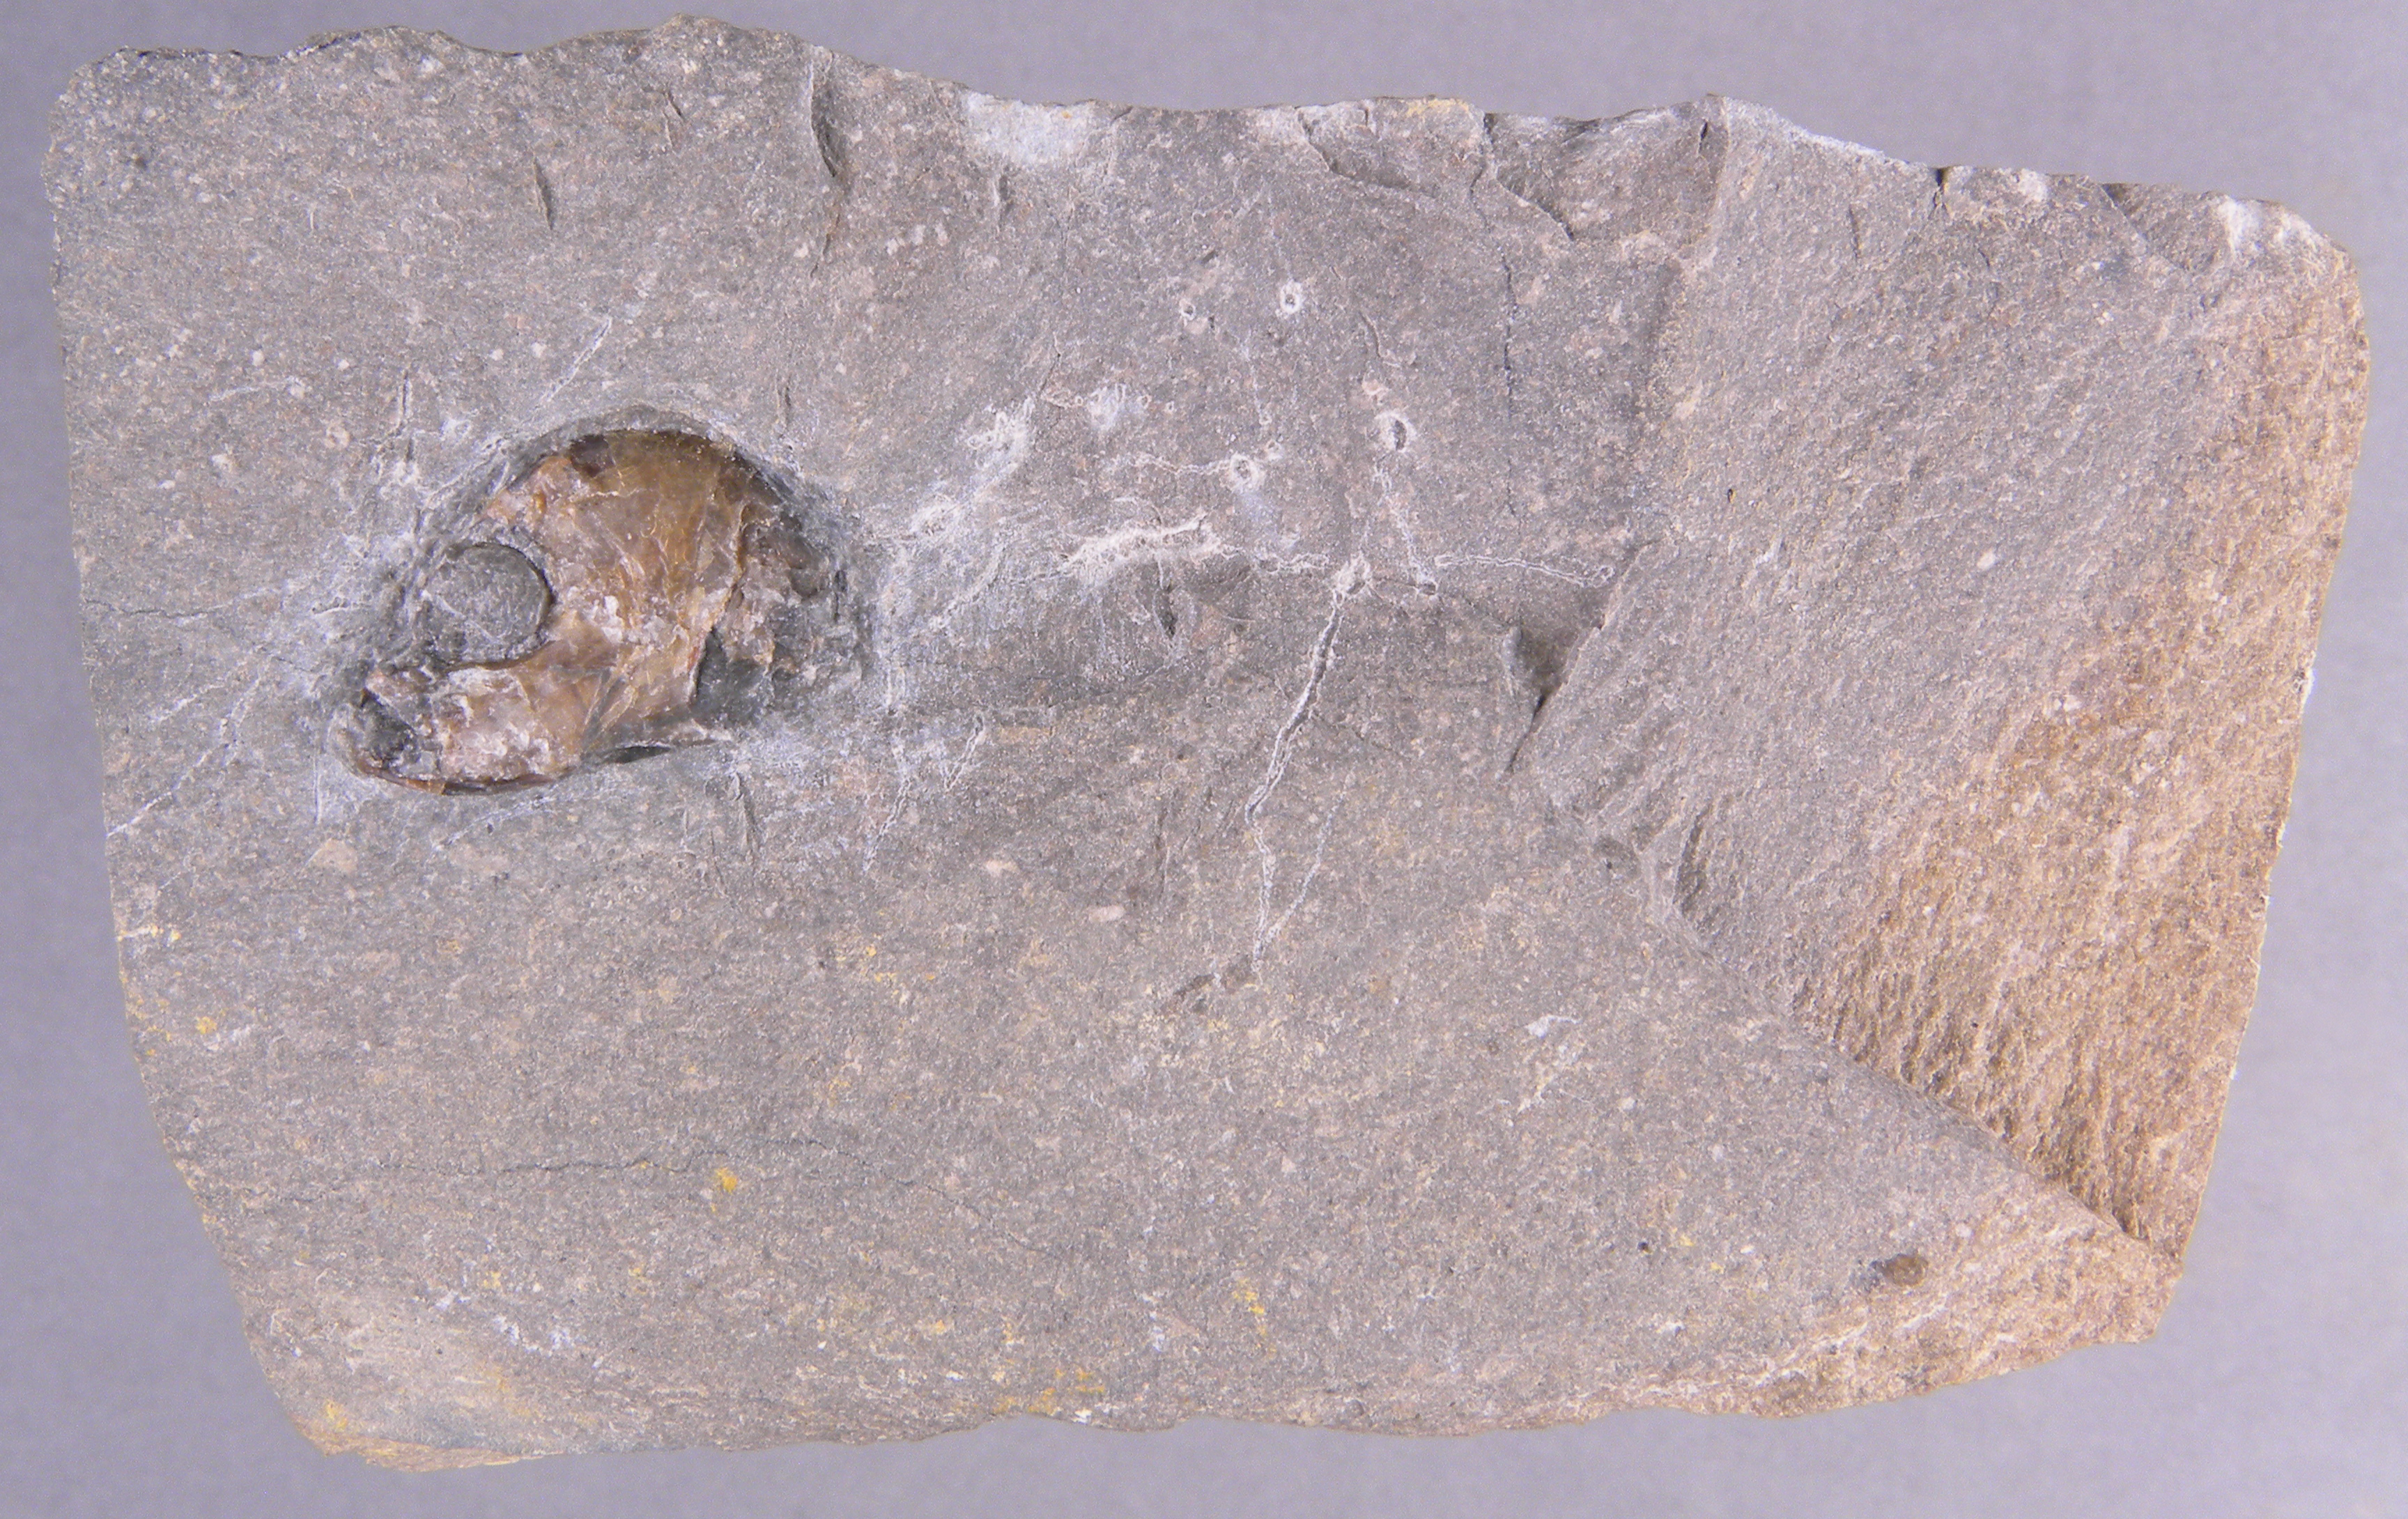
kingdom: Animalia
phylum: Chordata
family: Leptolepididae
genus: Leptolepis
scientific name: Leptolepis normandica
